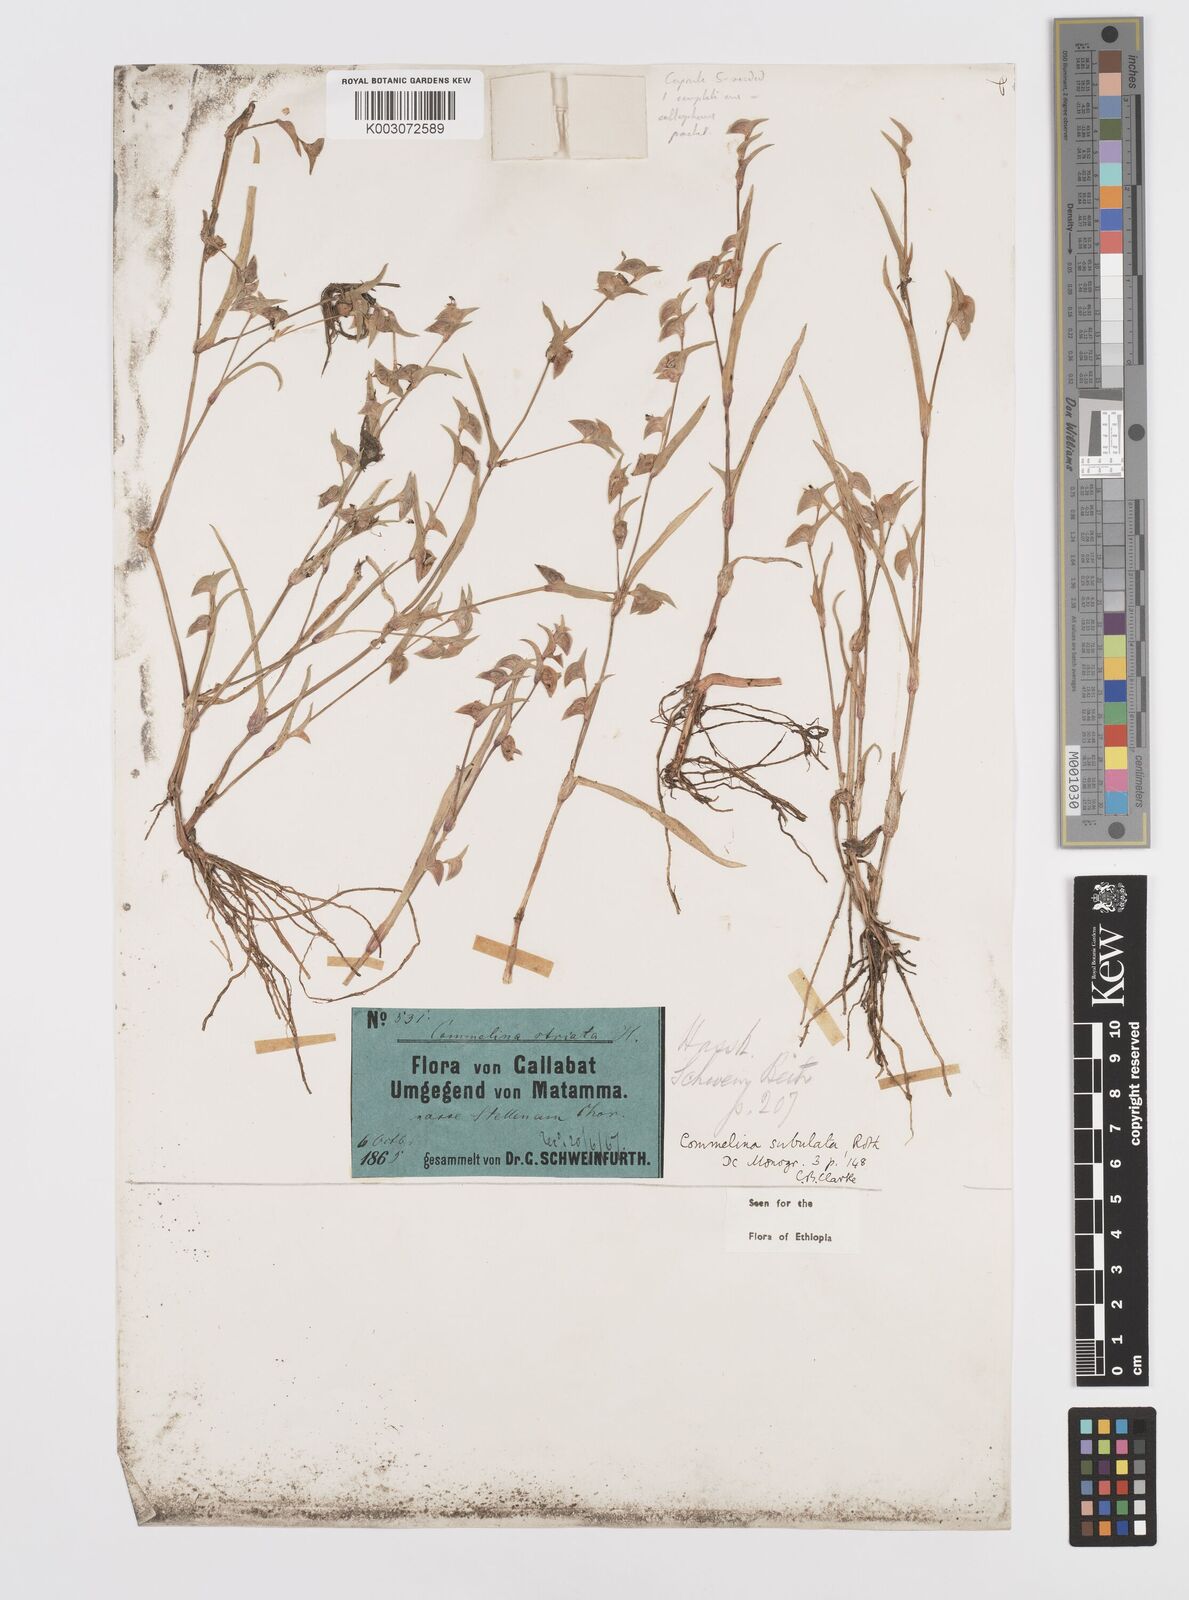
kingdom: Plantae
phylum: Tracheophyta
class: Liliopsida
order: Commelinales
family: Commelinaceae
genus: Commelina
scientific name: Commelina subulata
